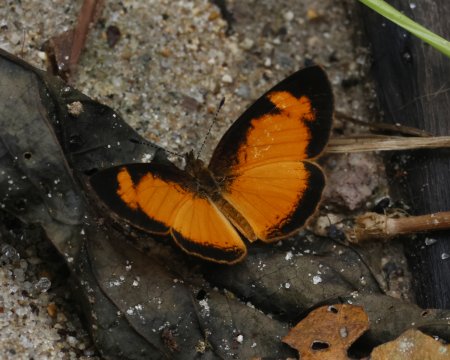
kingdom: Animalia
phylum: Arthropoda
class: Insecta
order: Lepidoptera
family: Nymphalidae
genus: Tegosa
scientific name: Tegosa anieta
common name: Black-bordered Crescent
